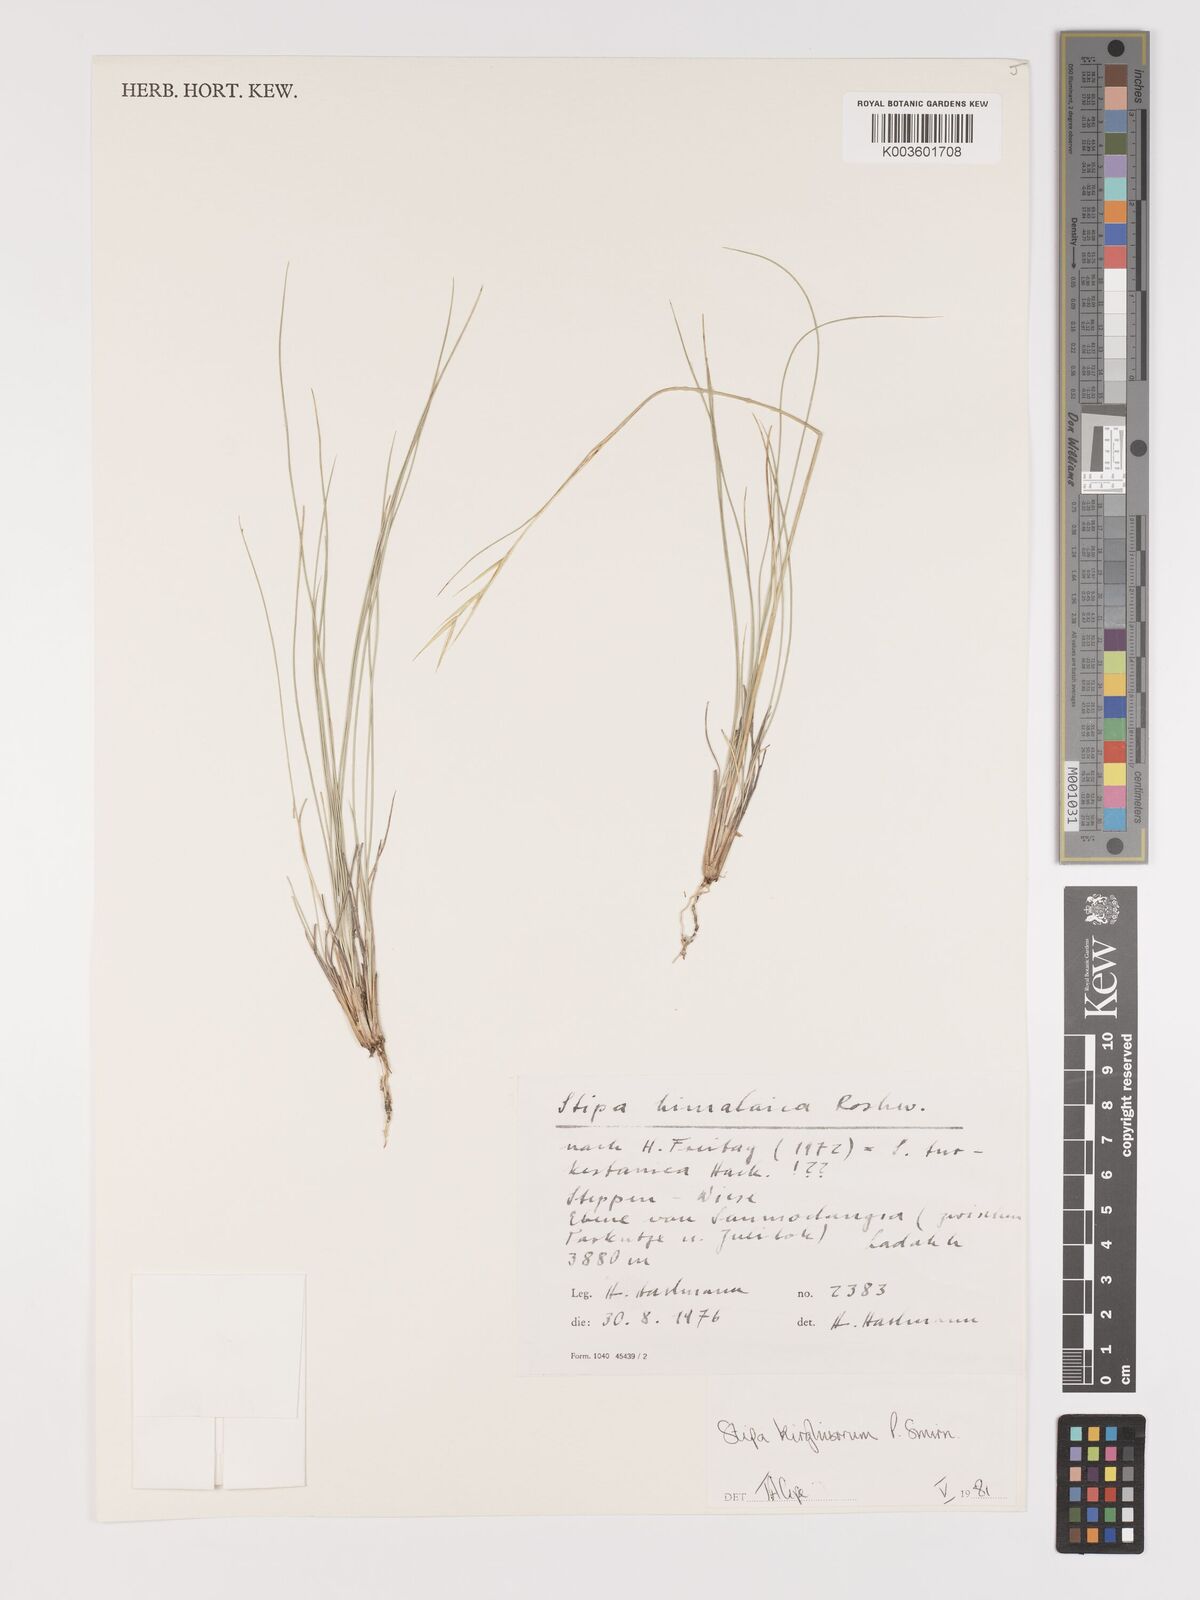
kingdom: Plantae
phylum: Tracheophyta
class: Liliopsida
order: Poales
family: Poaceae
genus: Stipa
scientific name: Stipa kirghisorum
